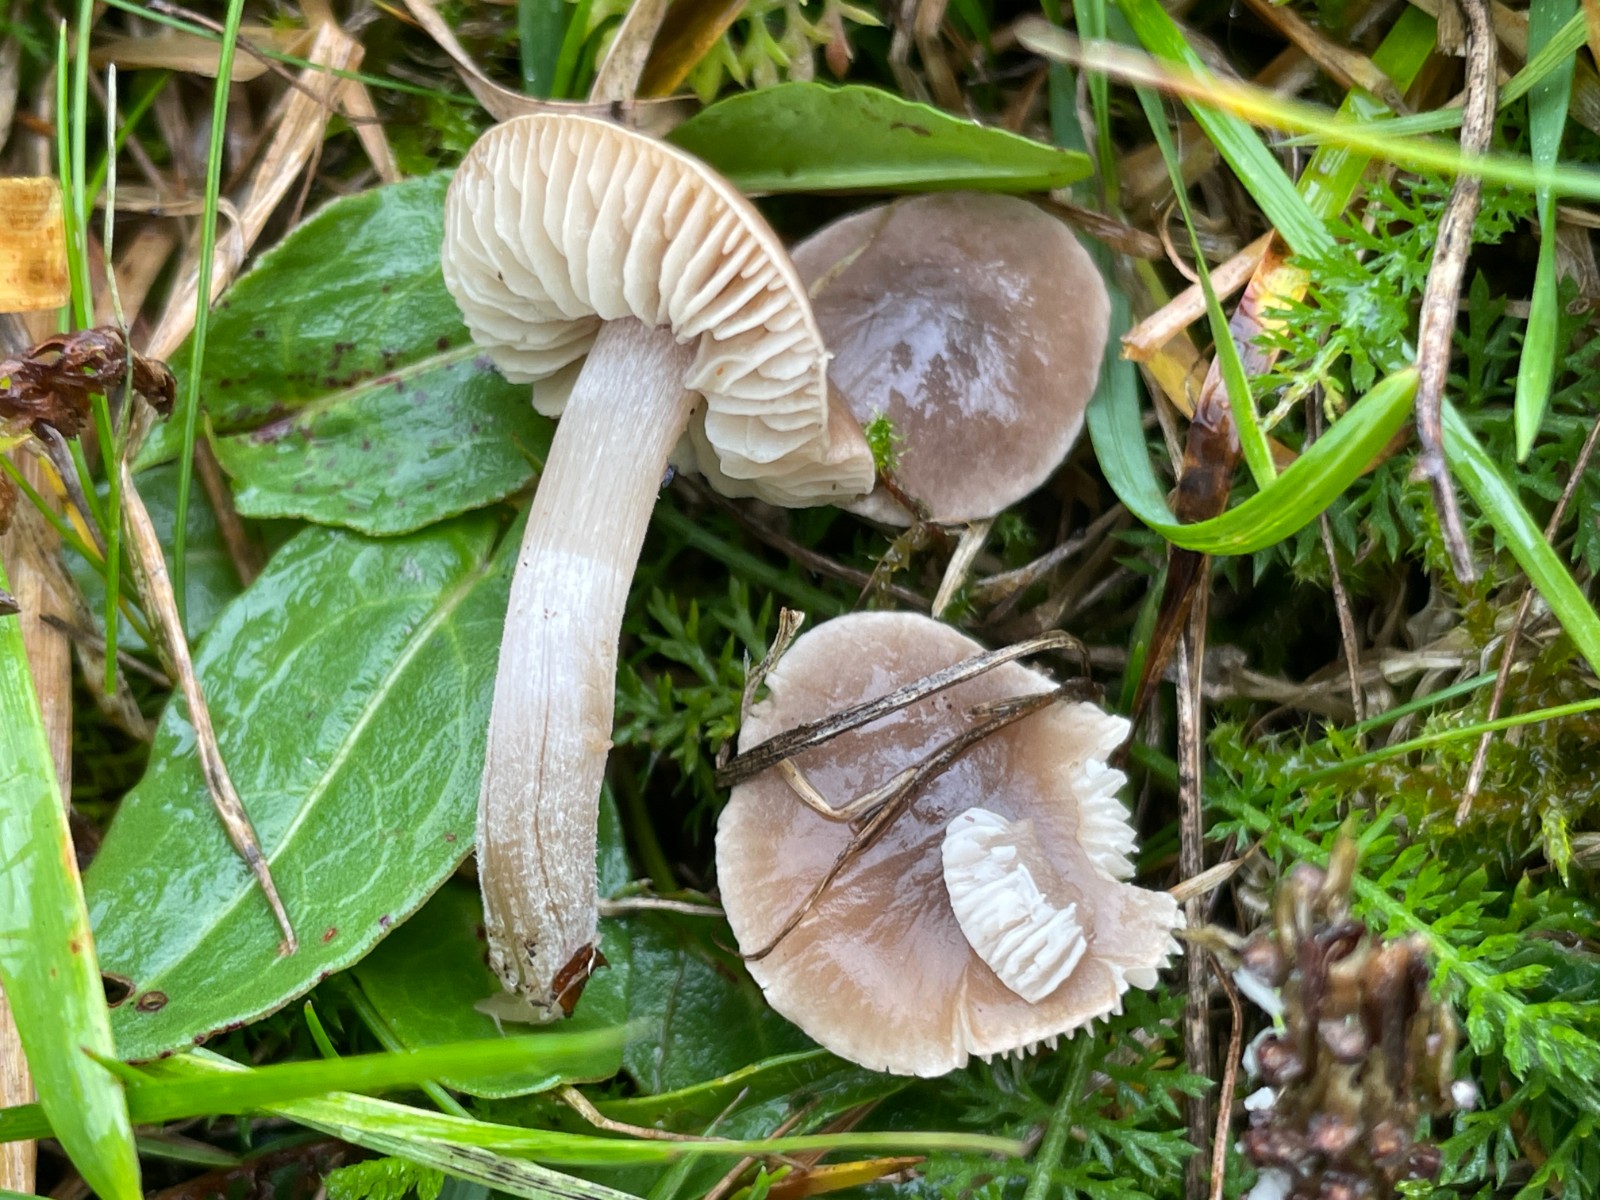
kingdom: Fungi
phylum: Basidiomycota
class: Agaricomycetes
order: Agaricales
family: Tricholomataceae
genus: Dermoloma
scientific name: Dermoloma cuneifolium
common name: eng-nonnehat
